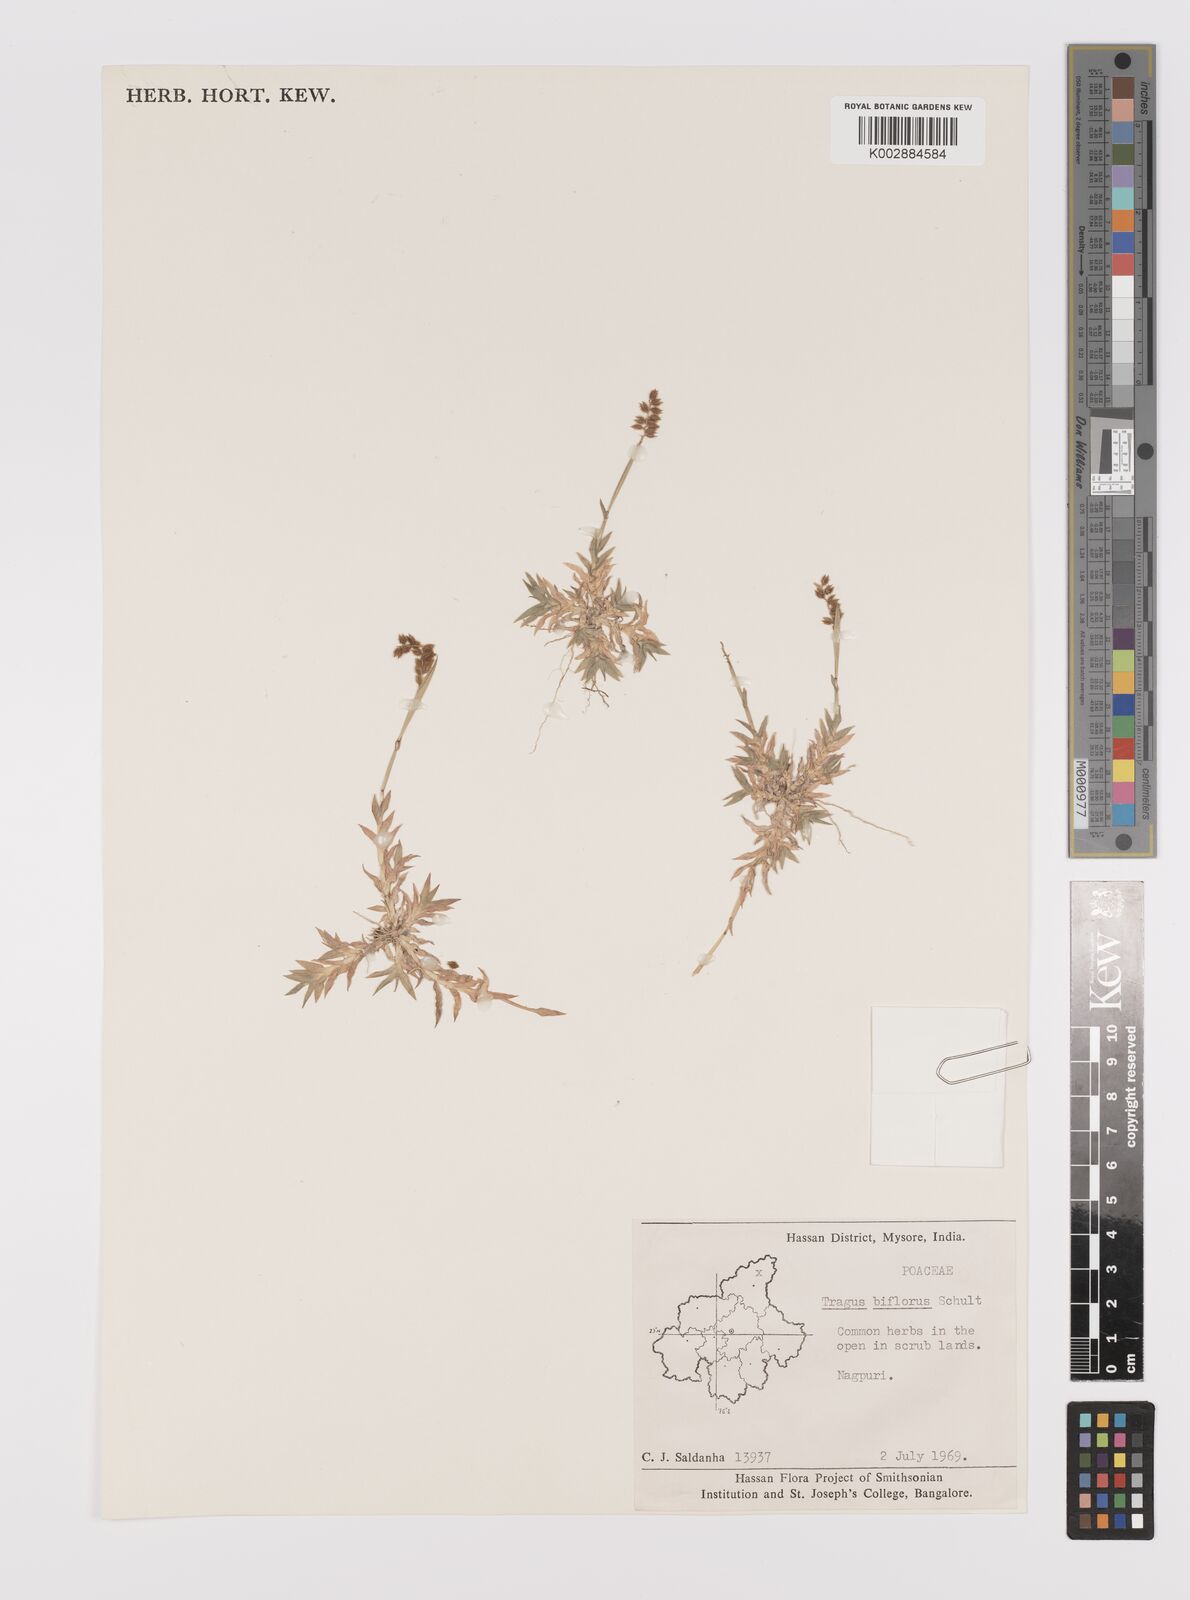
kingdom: Plantae
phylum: Tracheophyta
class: Liliopsida
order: Poales
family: Poaceae
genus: Tragus
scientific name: Tragus mongolorum
